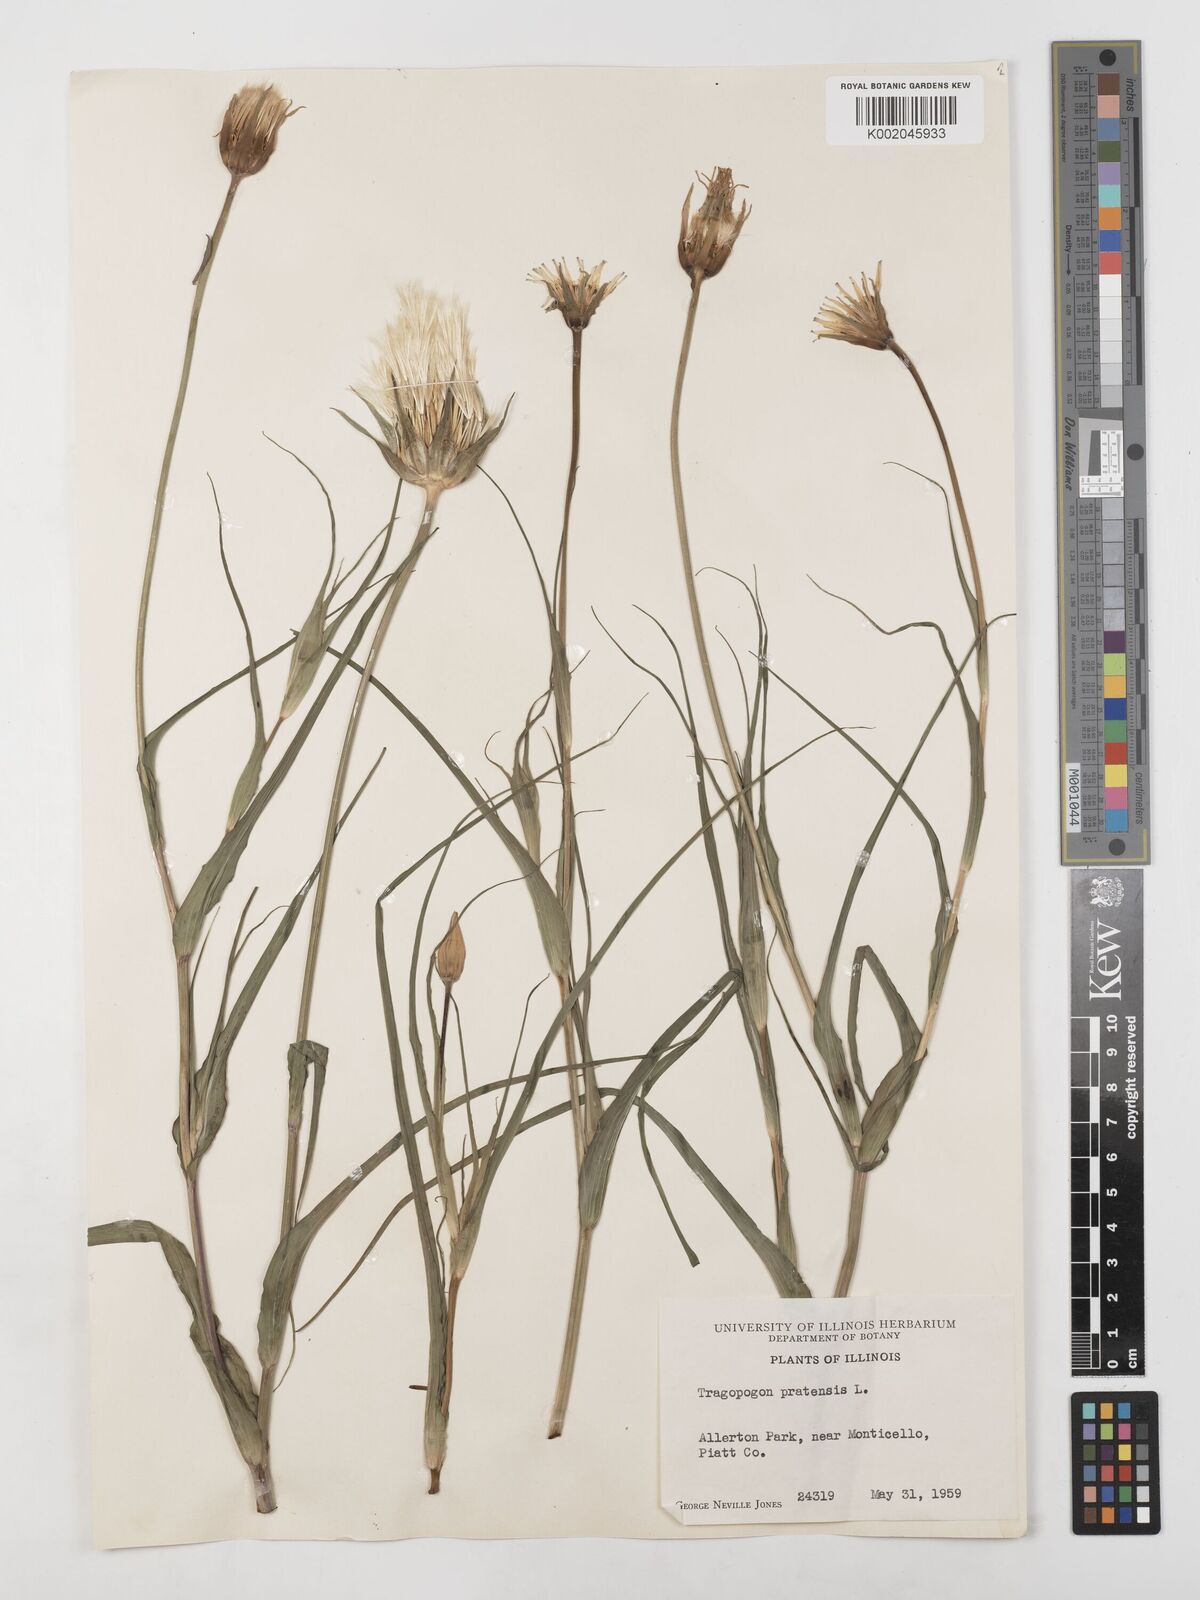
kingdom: Plantae
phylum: Tracheophyta
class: Magnoliopsida
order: Asterales
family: Asteraceae
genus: Tragopogon
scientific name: Tragopogon pratensis
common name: Goat's-beard
